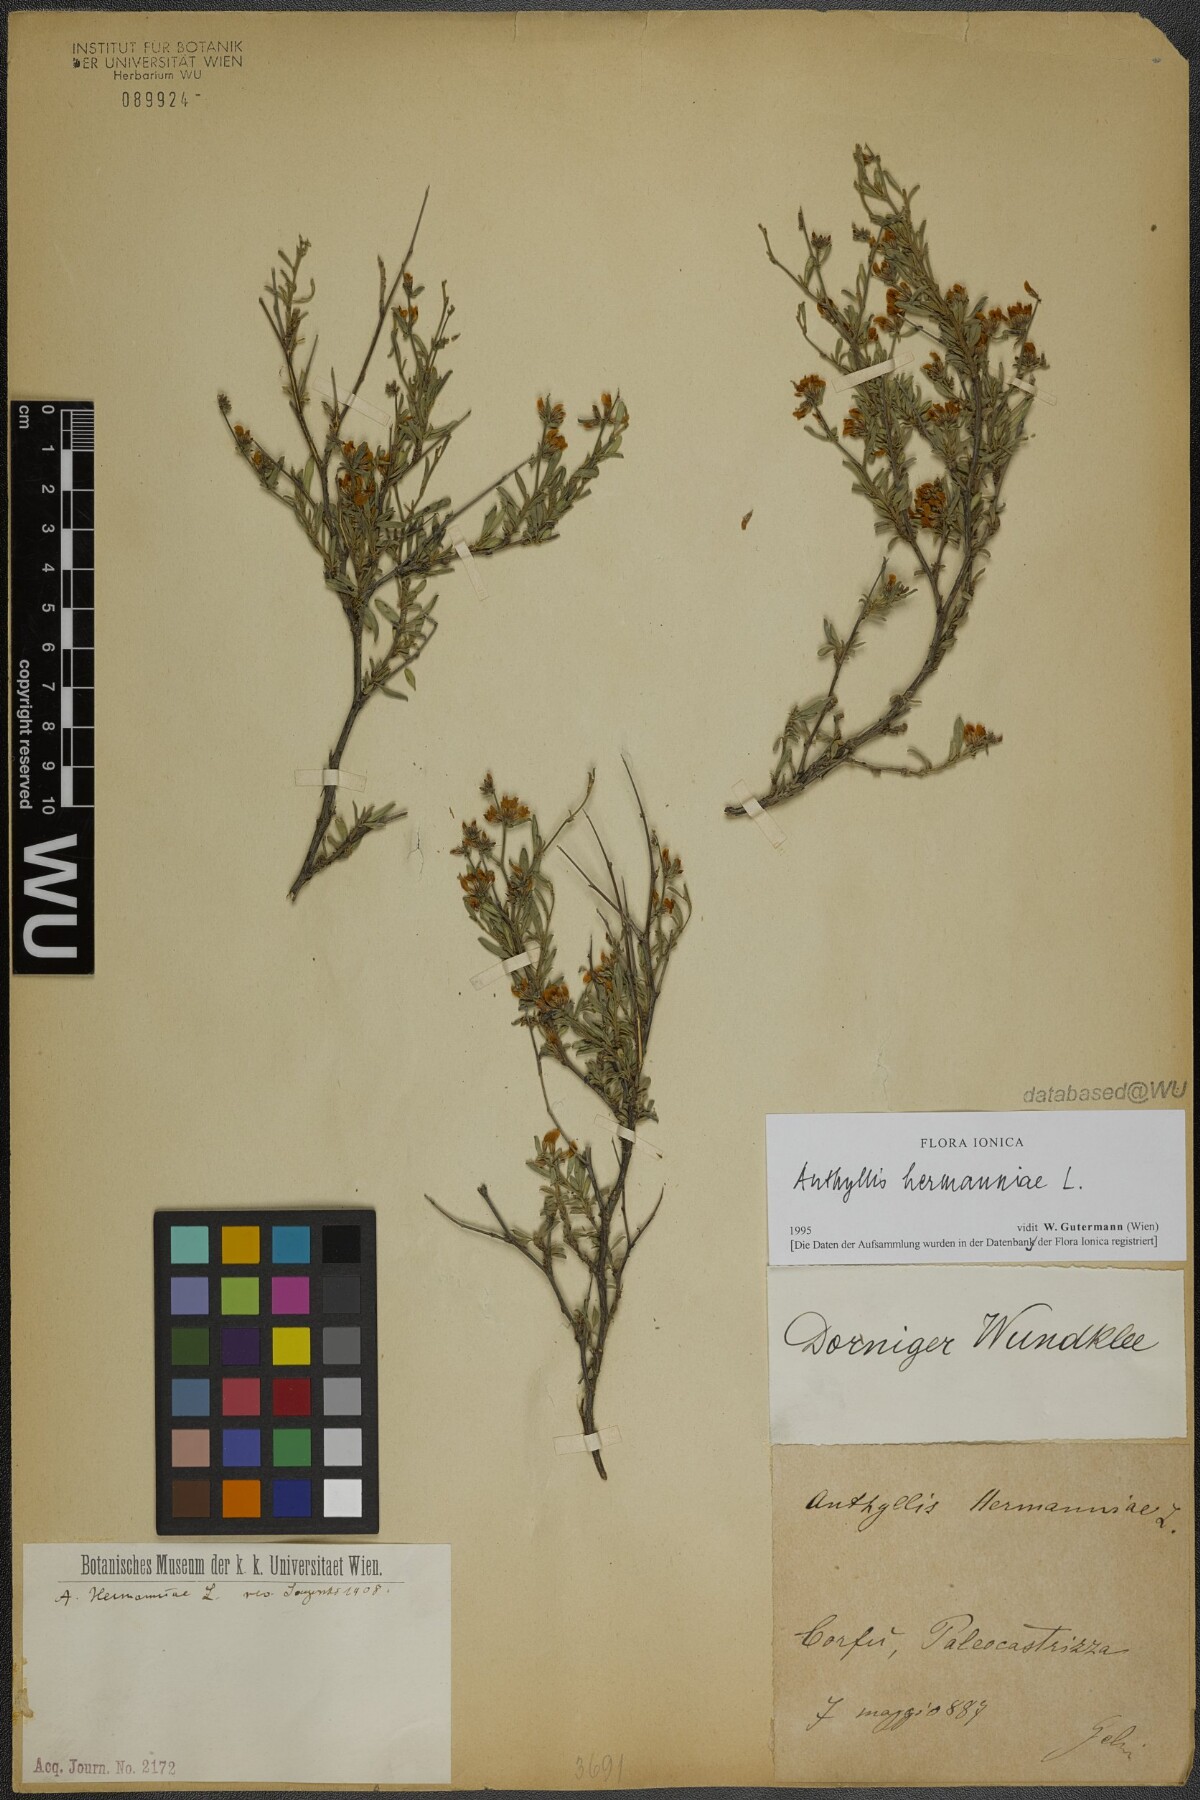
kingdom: Plantae
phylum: Tracheophyta
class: Magnoliopsida
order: Fabales
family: Fabaceae
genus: Anthyllis
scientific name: Anthyllis hermanniae
